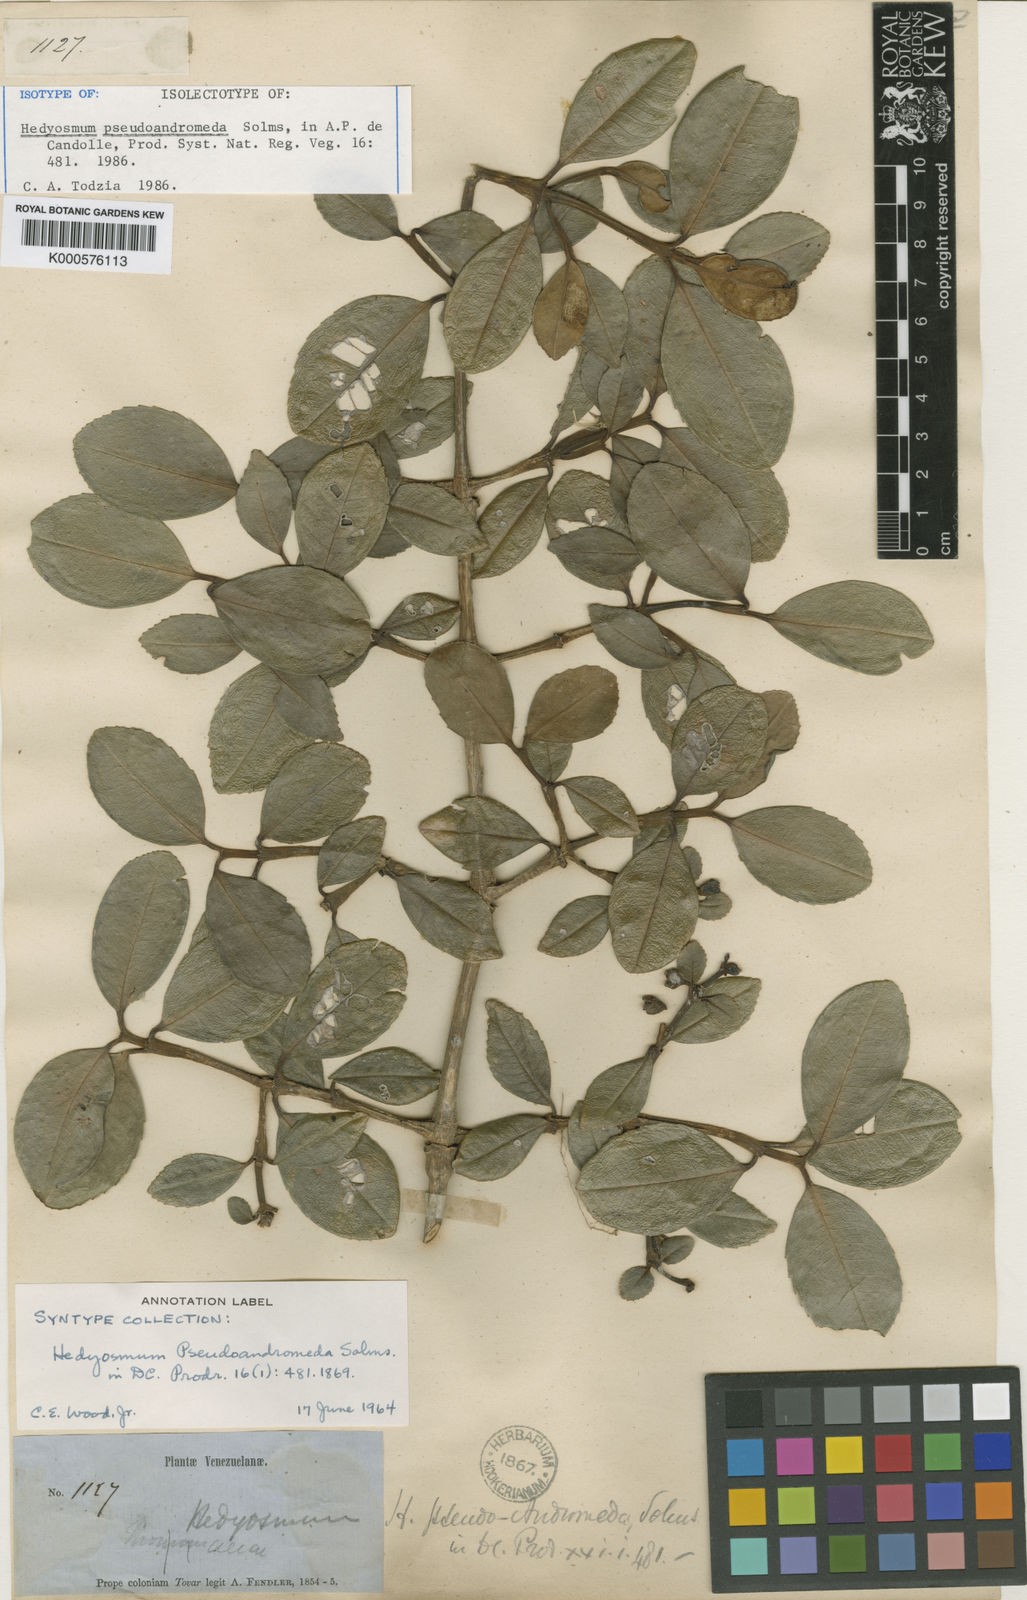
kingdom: Plantae
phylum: Tracheophyta
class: Magnoliopsida
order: Chloranthales
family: Chloranthaceae
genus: Hedyosmum
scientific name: Hedyosmum pseudoandromeda
